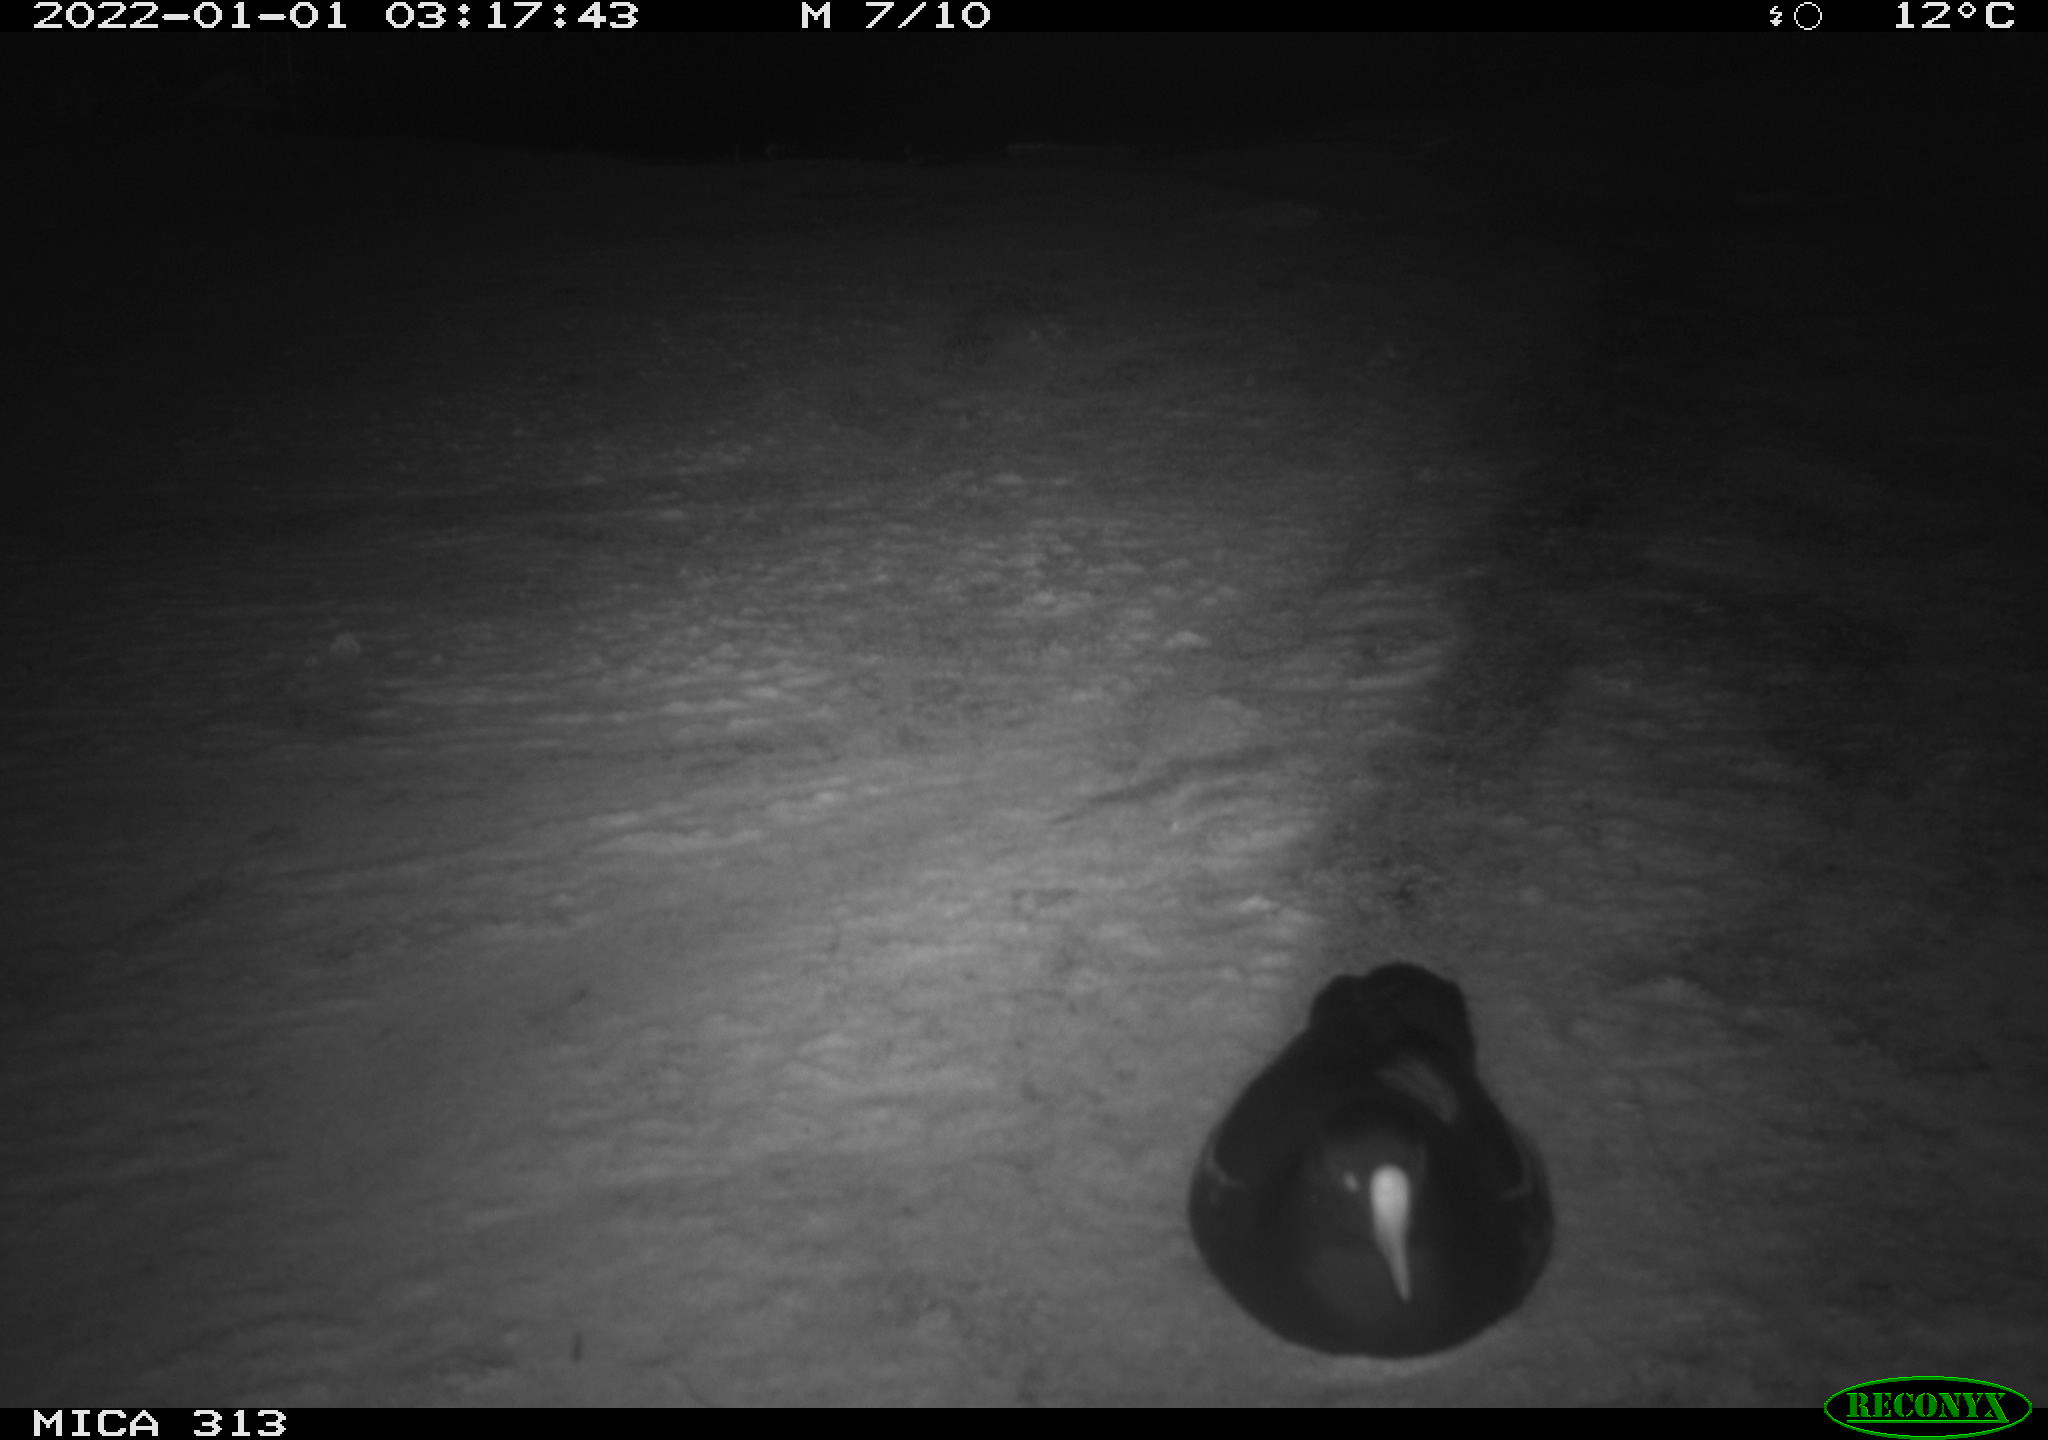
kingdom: Animalia
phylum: Chordata
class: Aves
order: Gruiformes
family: Rallidae
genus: Gallinula
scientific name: Gallinula chloropus
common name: Common moorhen
